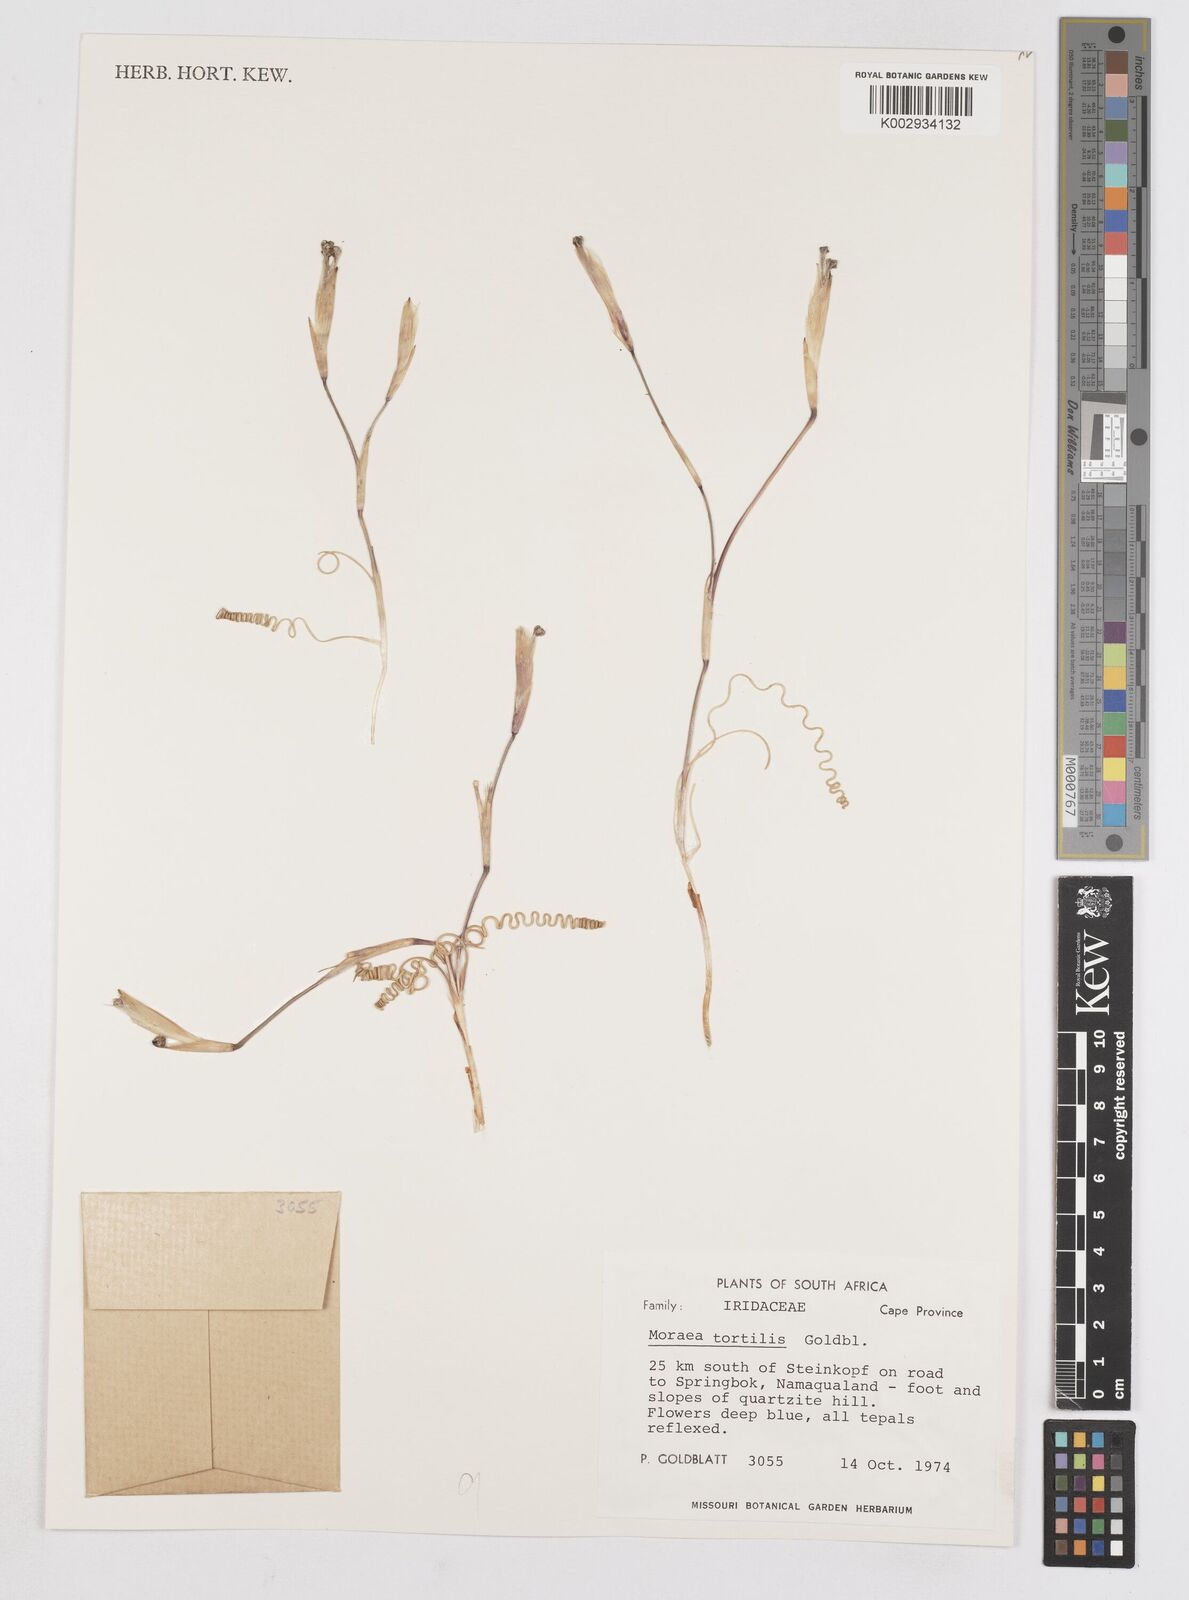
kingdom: Plantae
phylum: Tracheophyta
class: Liliopsida
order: Asparagales
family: Iridaceae
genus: Moraea
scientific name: Moraea tortilis
